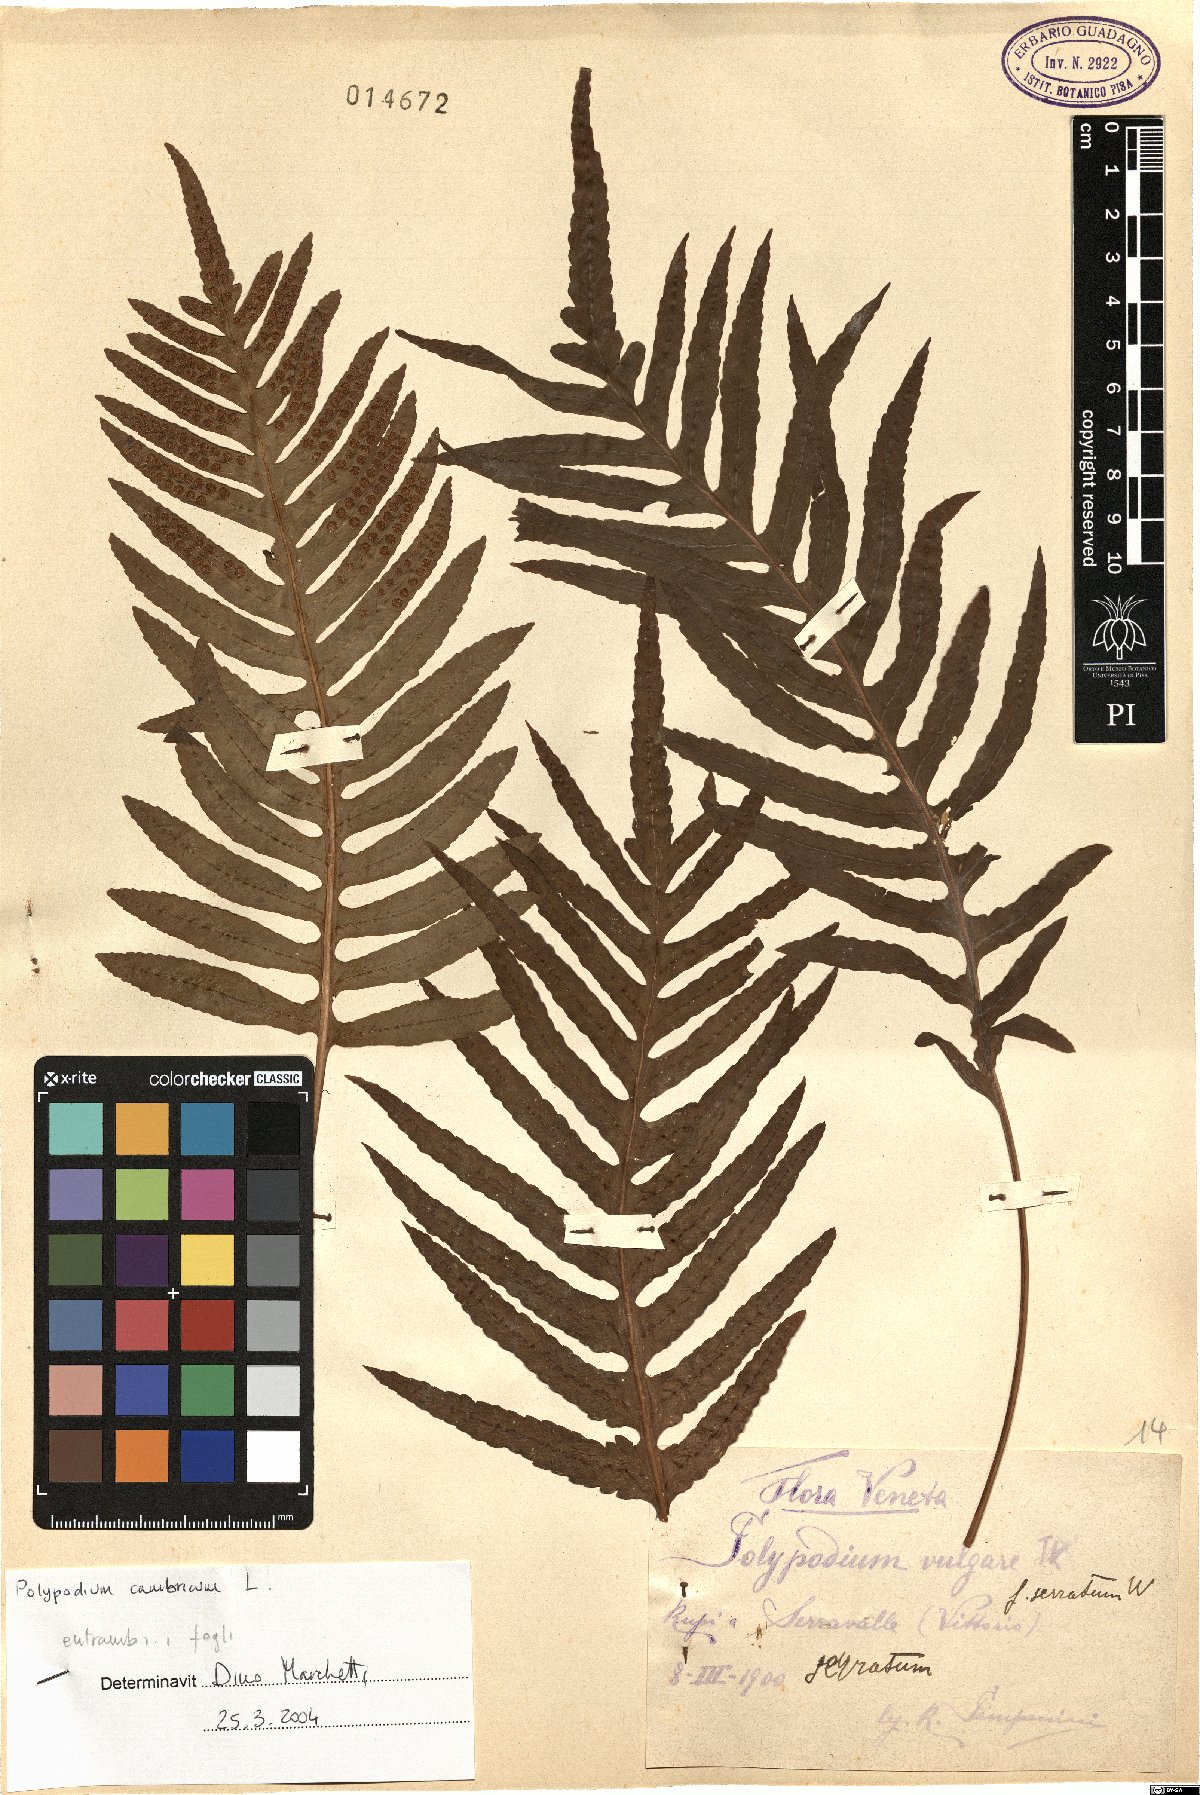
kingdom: Plantae
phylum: Tracheophyta
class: Polypodiopsida
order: Polypodiales
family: Polypodiaceae
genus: Polypodium
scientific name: Polypodium cambricum
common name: Southern polypody
